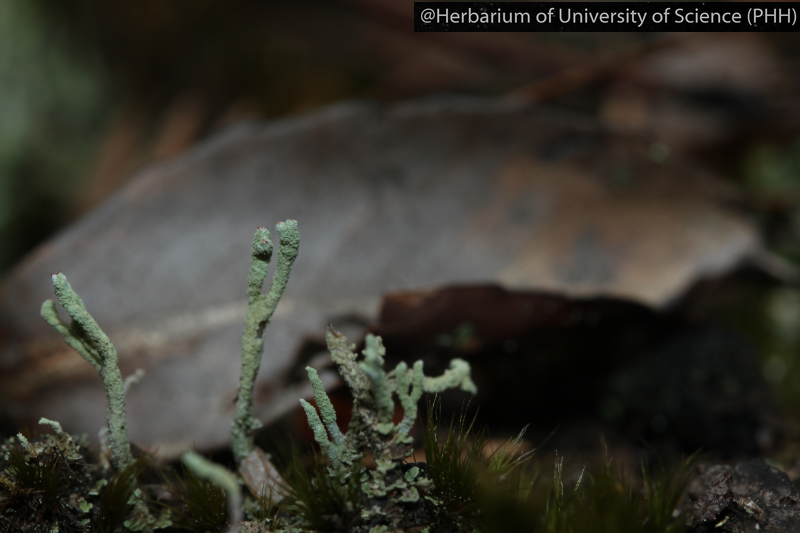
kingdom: Fungi
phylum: Ascomycota
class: Lecanoromycetes
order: Lecanorales
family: Cladoniaceae
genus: Cladonia
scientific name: Cladonia
